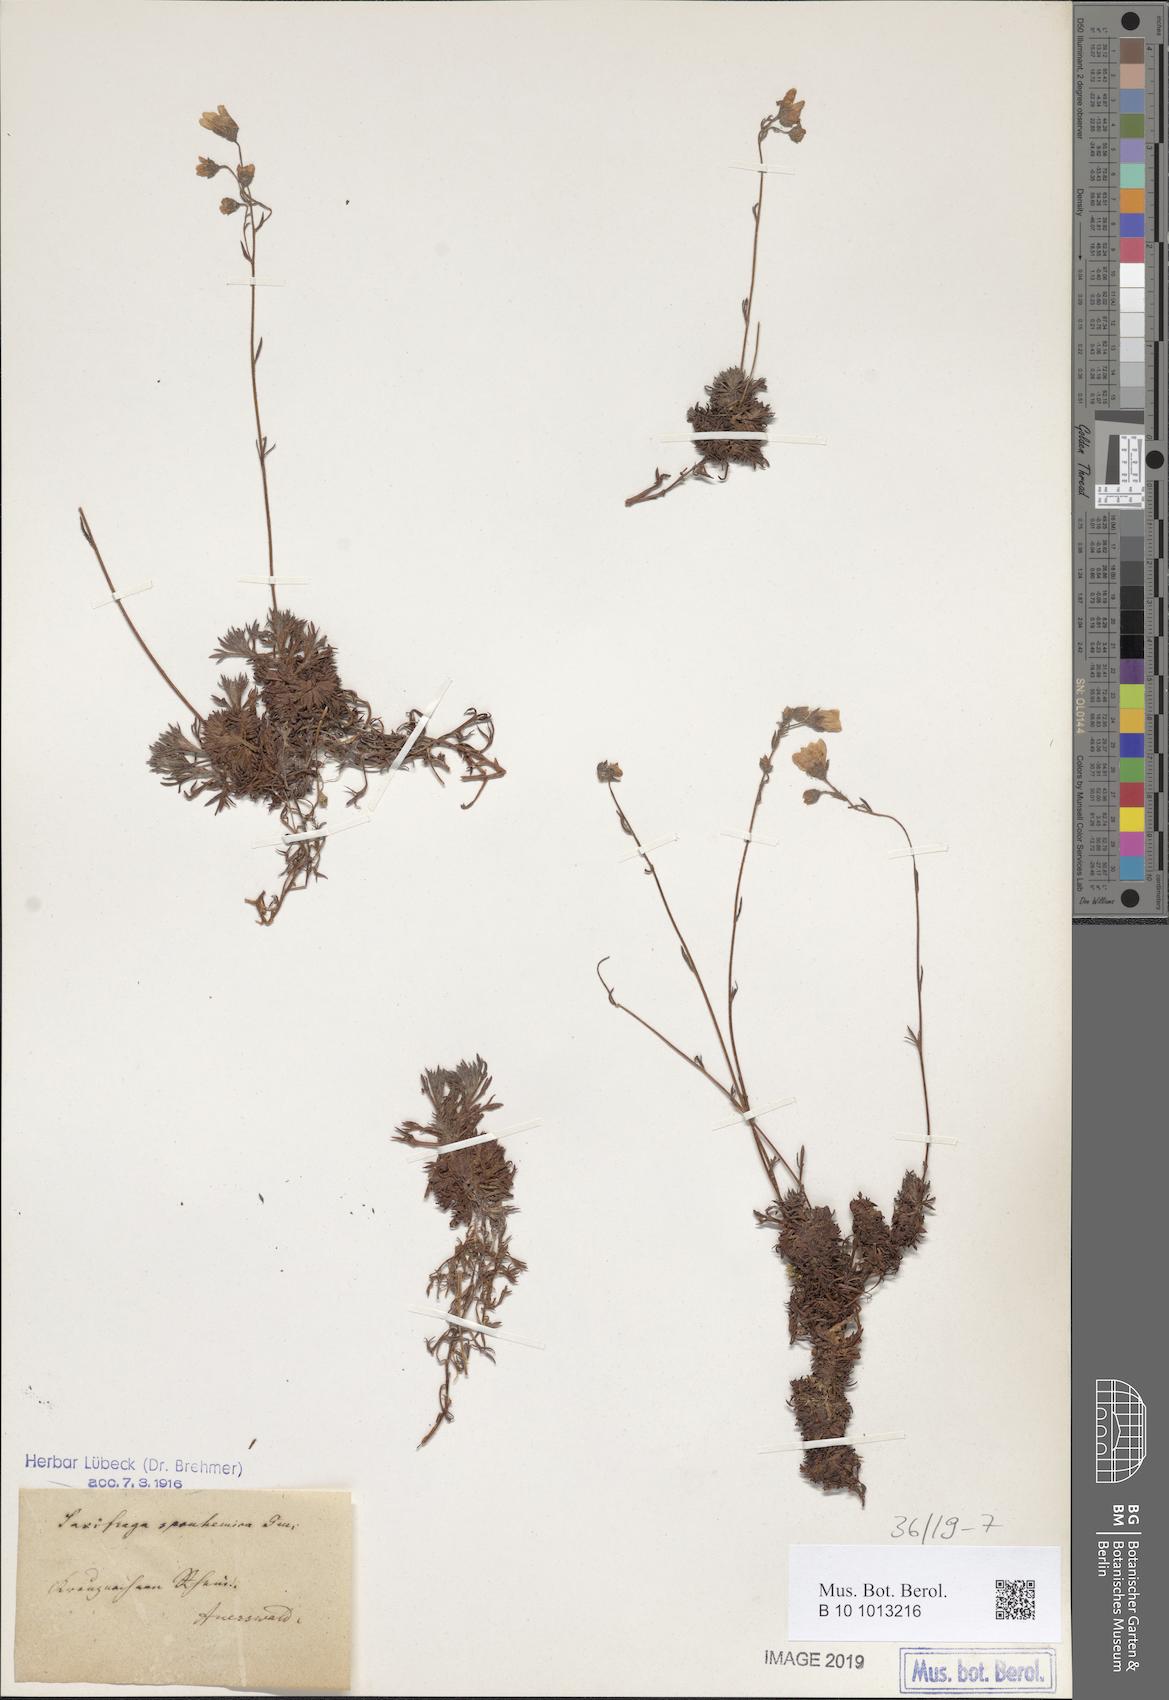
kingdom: Plantae
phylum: Tracheophyta
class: Magnoliopsida
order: Saxifragales
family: Saxifragaceae
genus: Saxifraga
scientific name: Saxifraga rosacea
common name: Irish saxifrage
